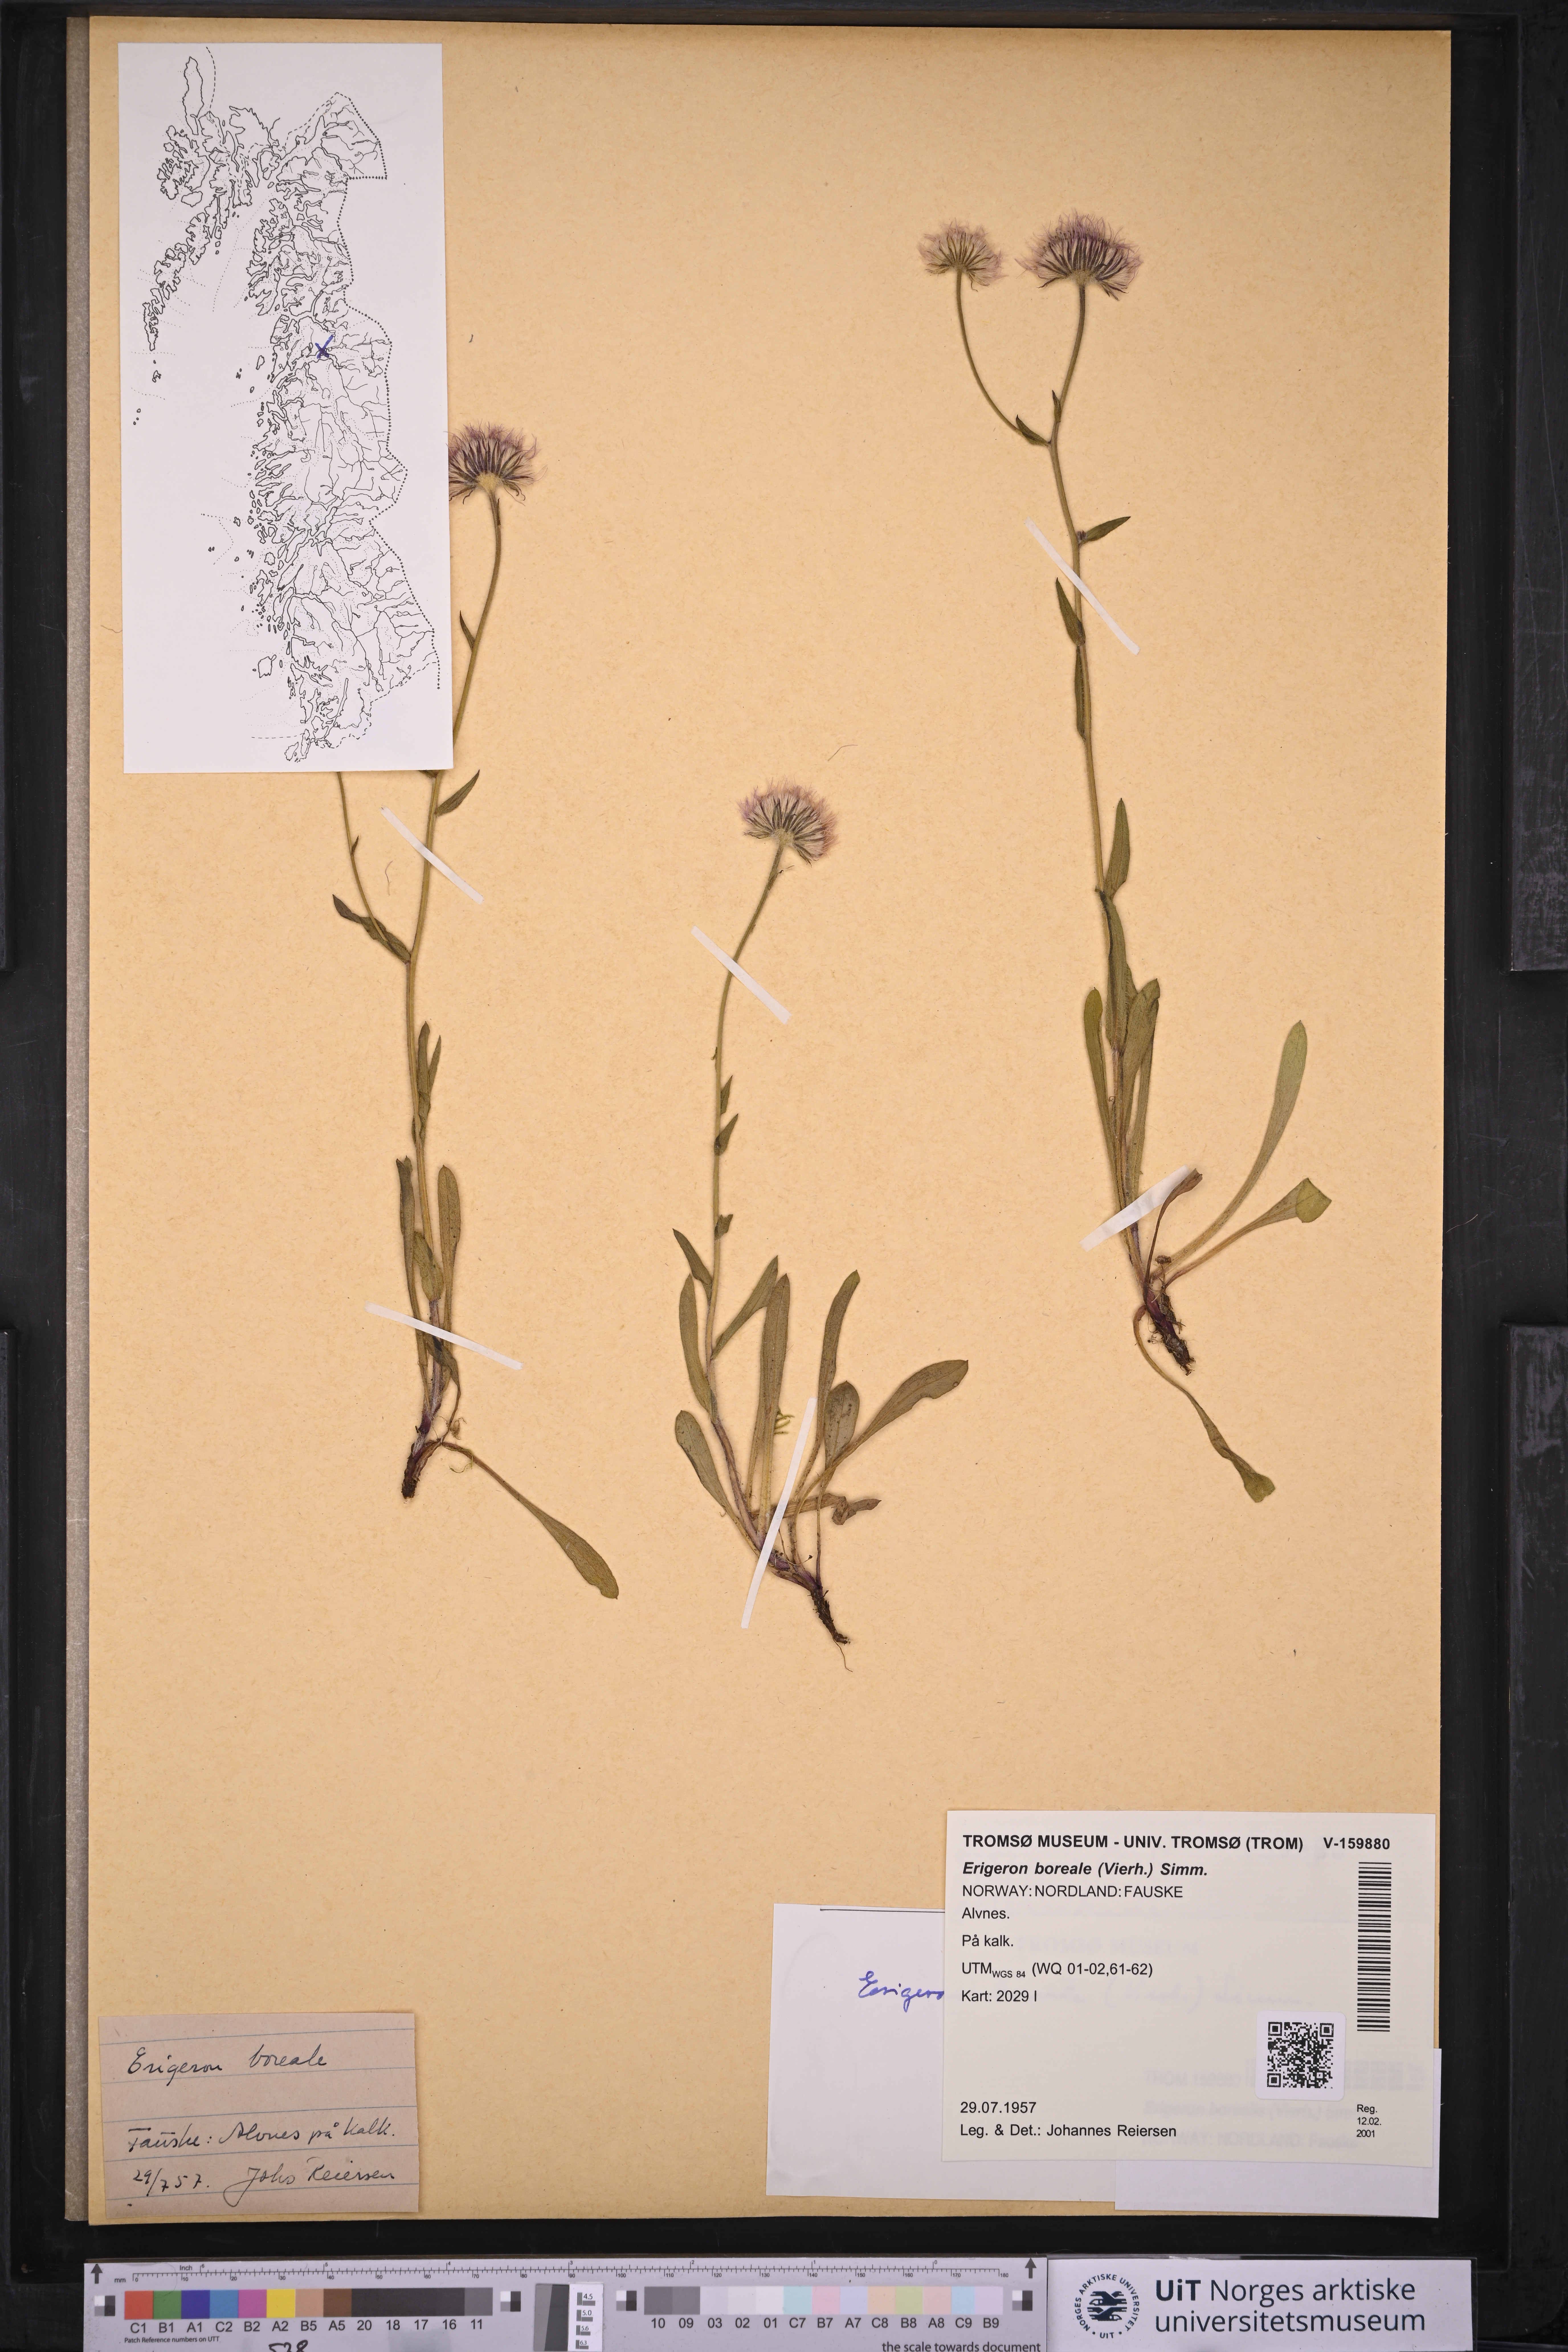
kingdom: Plantae
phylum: Tracheophyta
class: Magnoliopsida
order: Asterales
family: Asteraceae
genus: Erigeron
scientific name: Erigeron borealis
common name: Alpine fleabane
